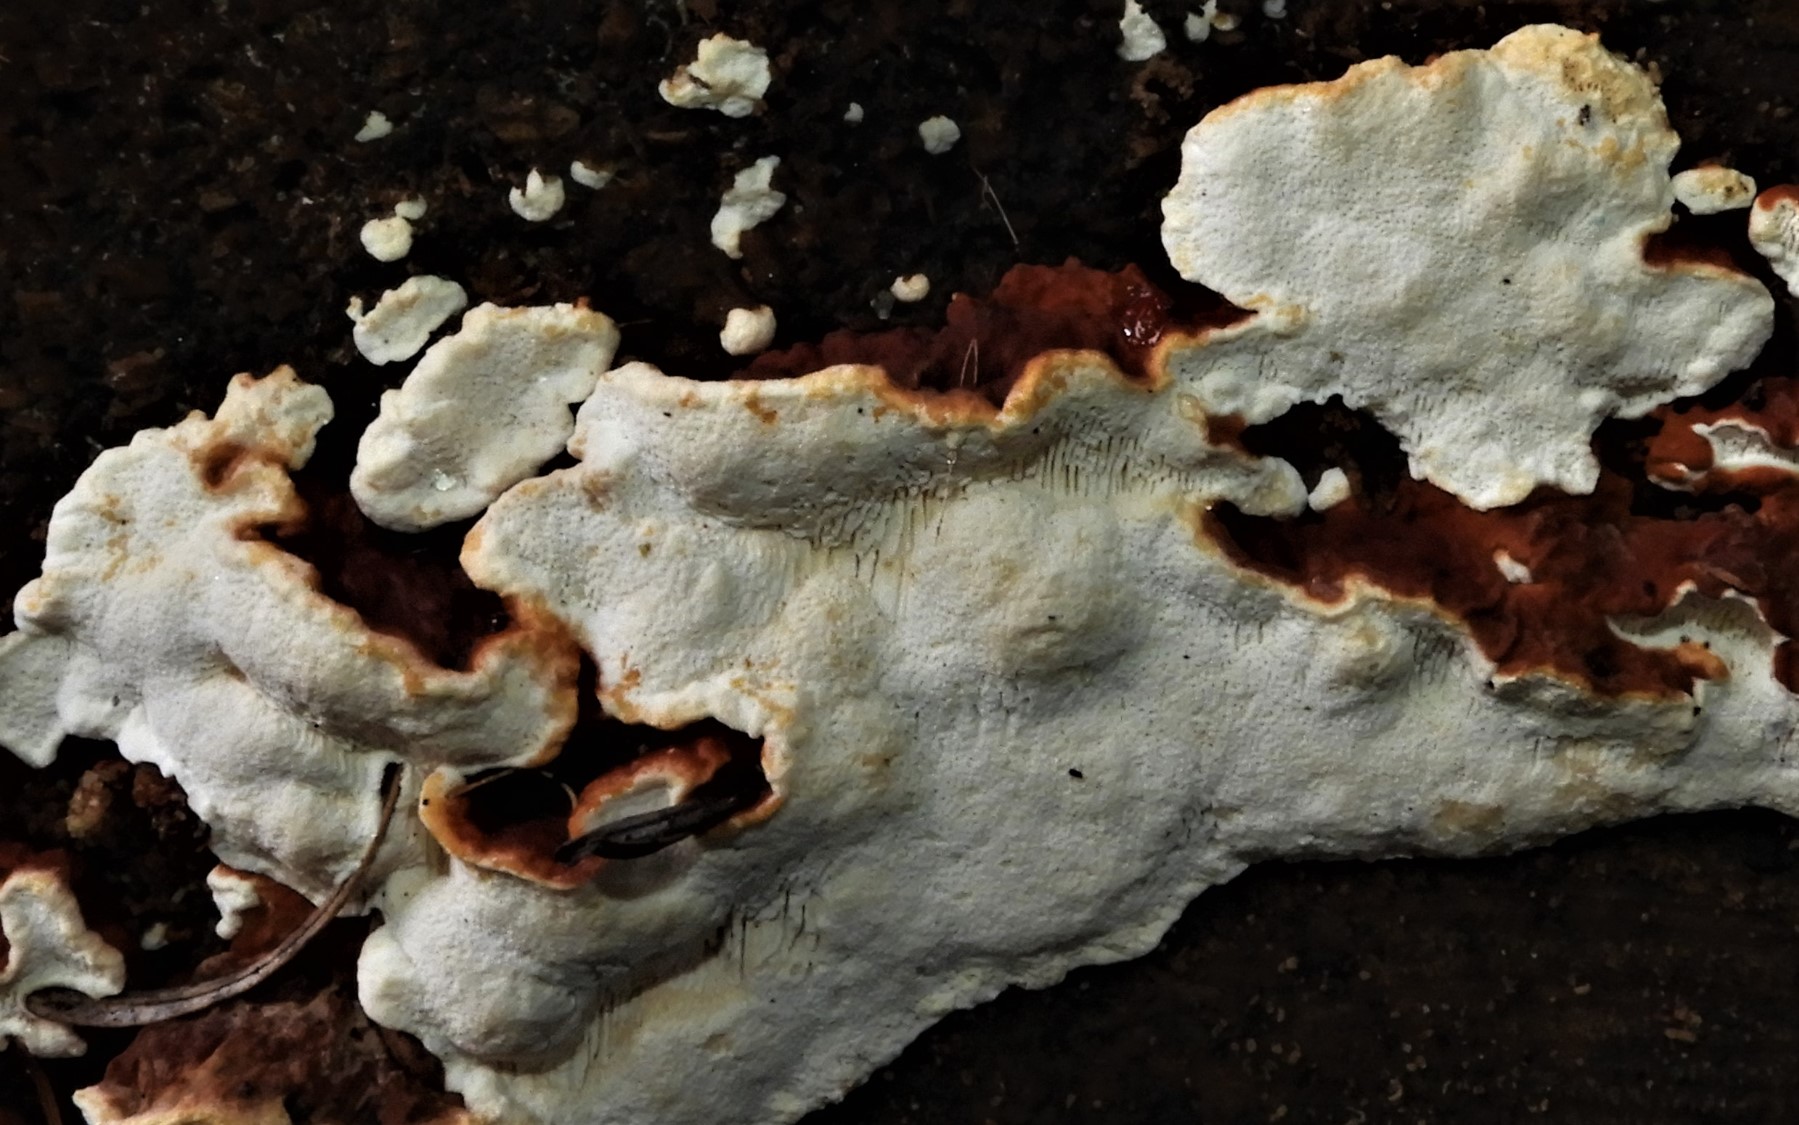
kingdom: Fungi
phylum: Basidiomycota
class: Agaricomycetes
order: Russulales
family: Bondarzewiaceae
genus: Heterobasidion
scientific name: Heterobasidion
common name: rodfordærver
